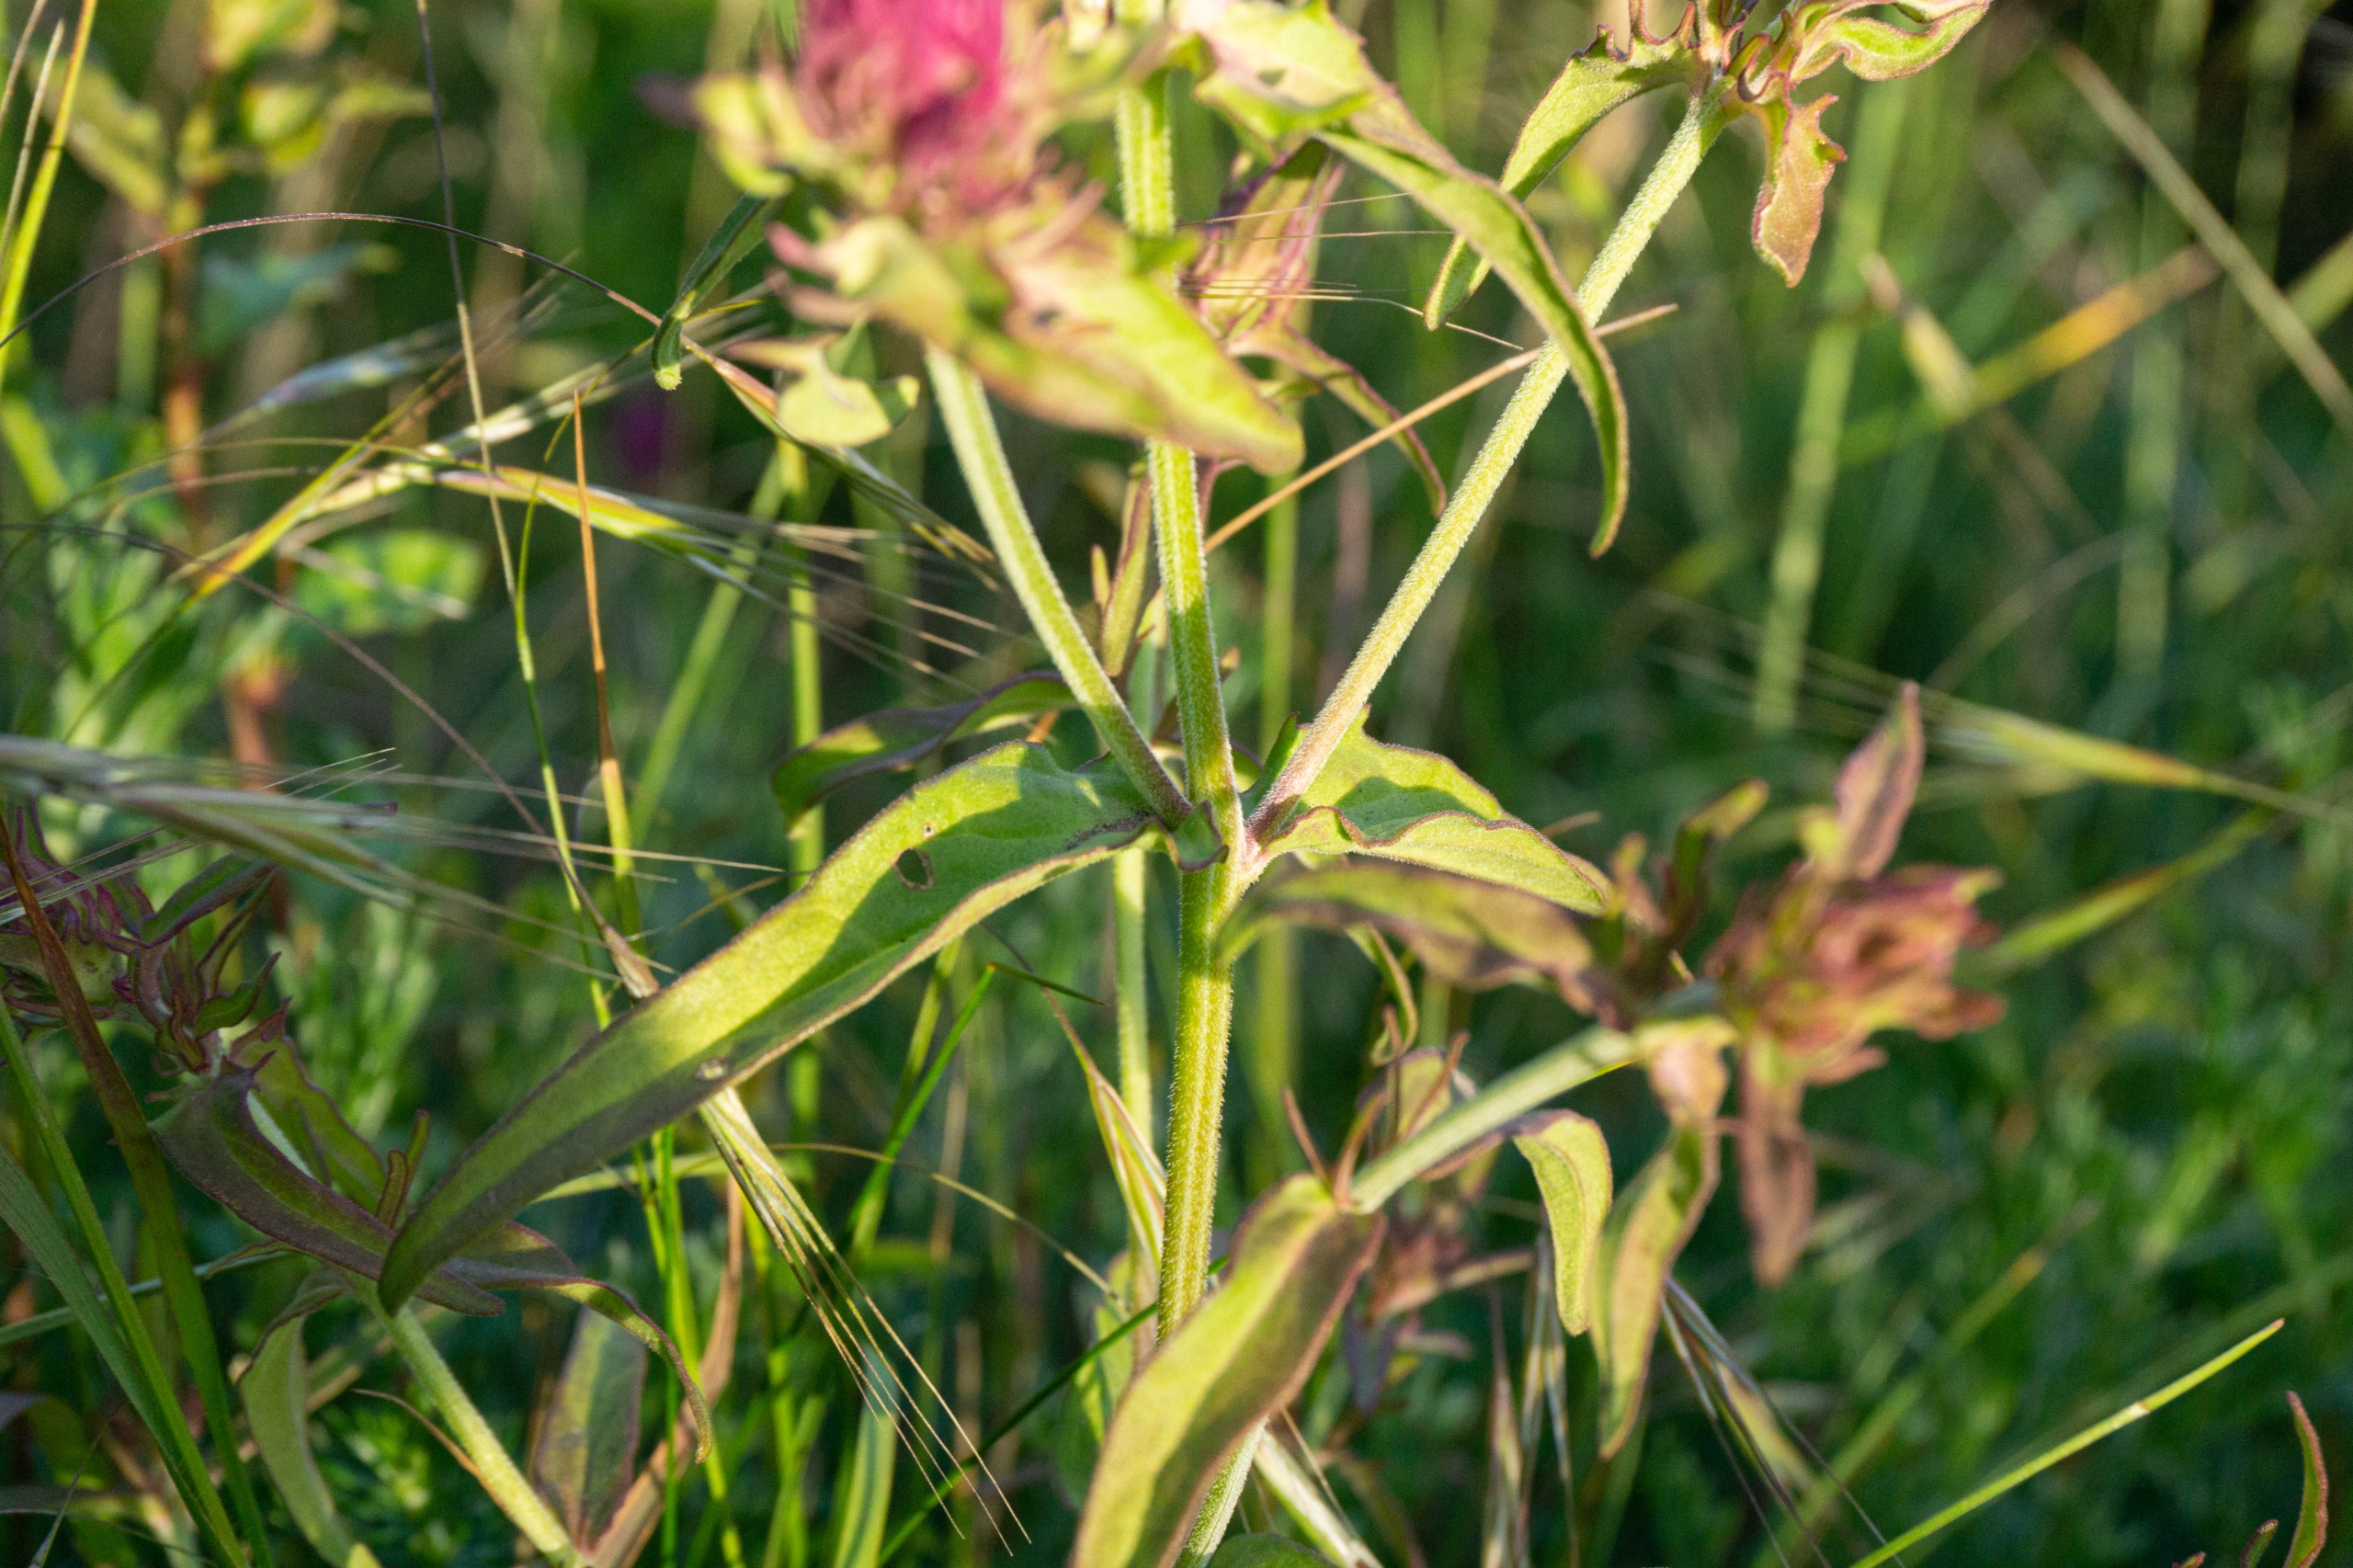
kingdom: Plantae
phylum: Tracheophyta
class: Magnoliopsida
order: Lamiales
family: Orobanchaceae
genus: Melampyrum
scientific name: Melampyrum arvense
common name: Ager-kohvede
